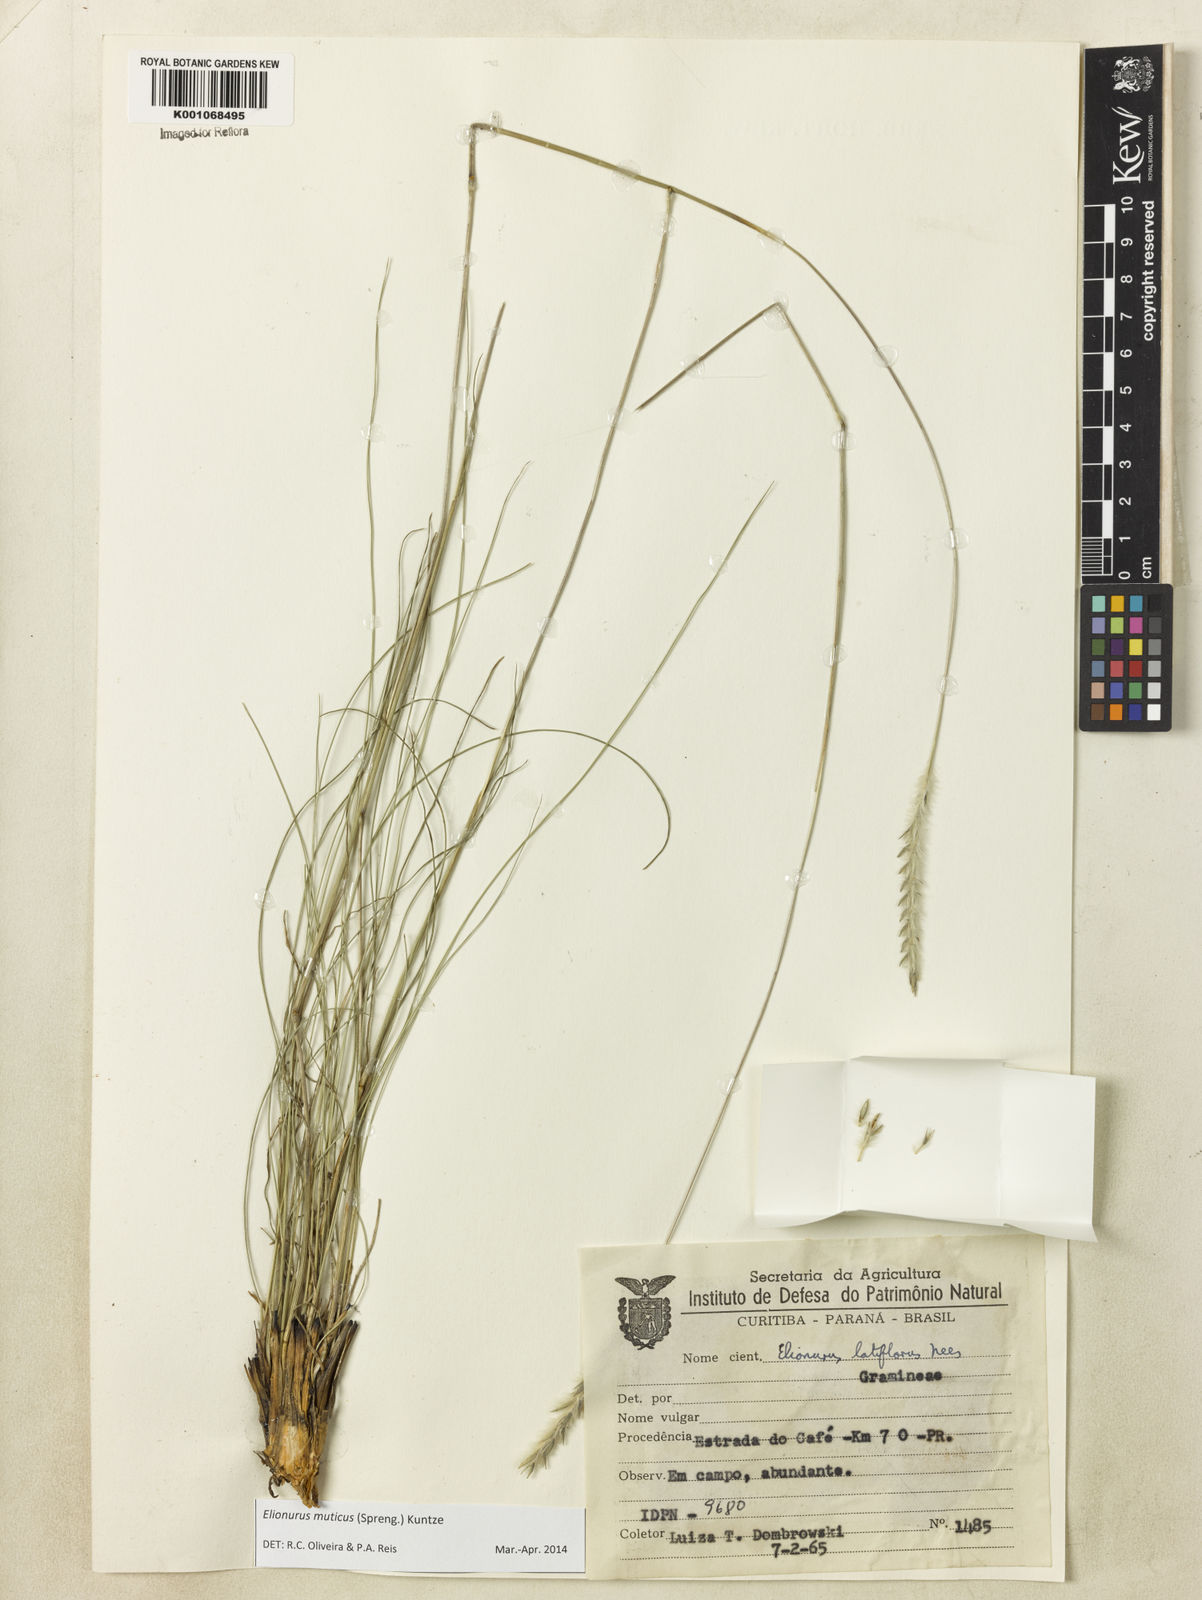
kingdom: Plantae
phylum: Tracheophyta
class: Liliopsida
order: Poales
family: Poaceae
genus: Elionurus
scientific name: Elionurus muticus
